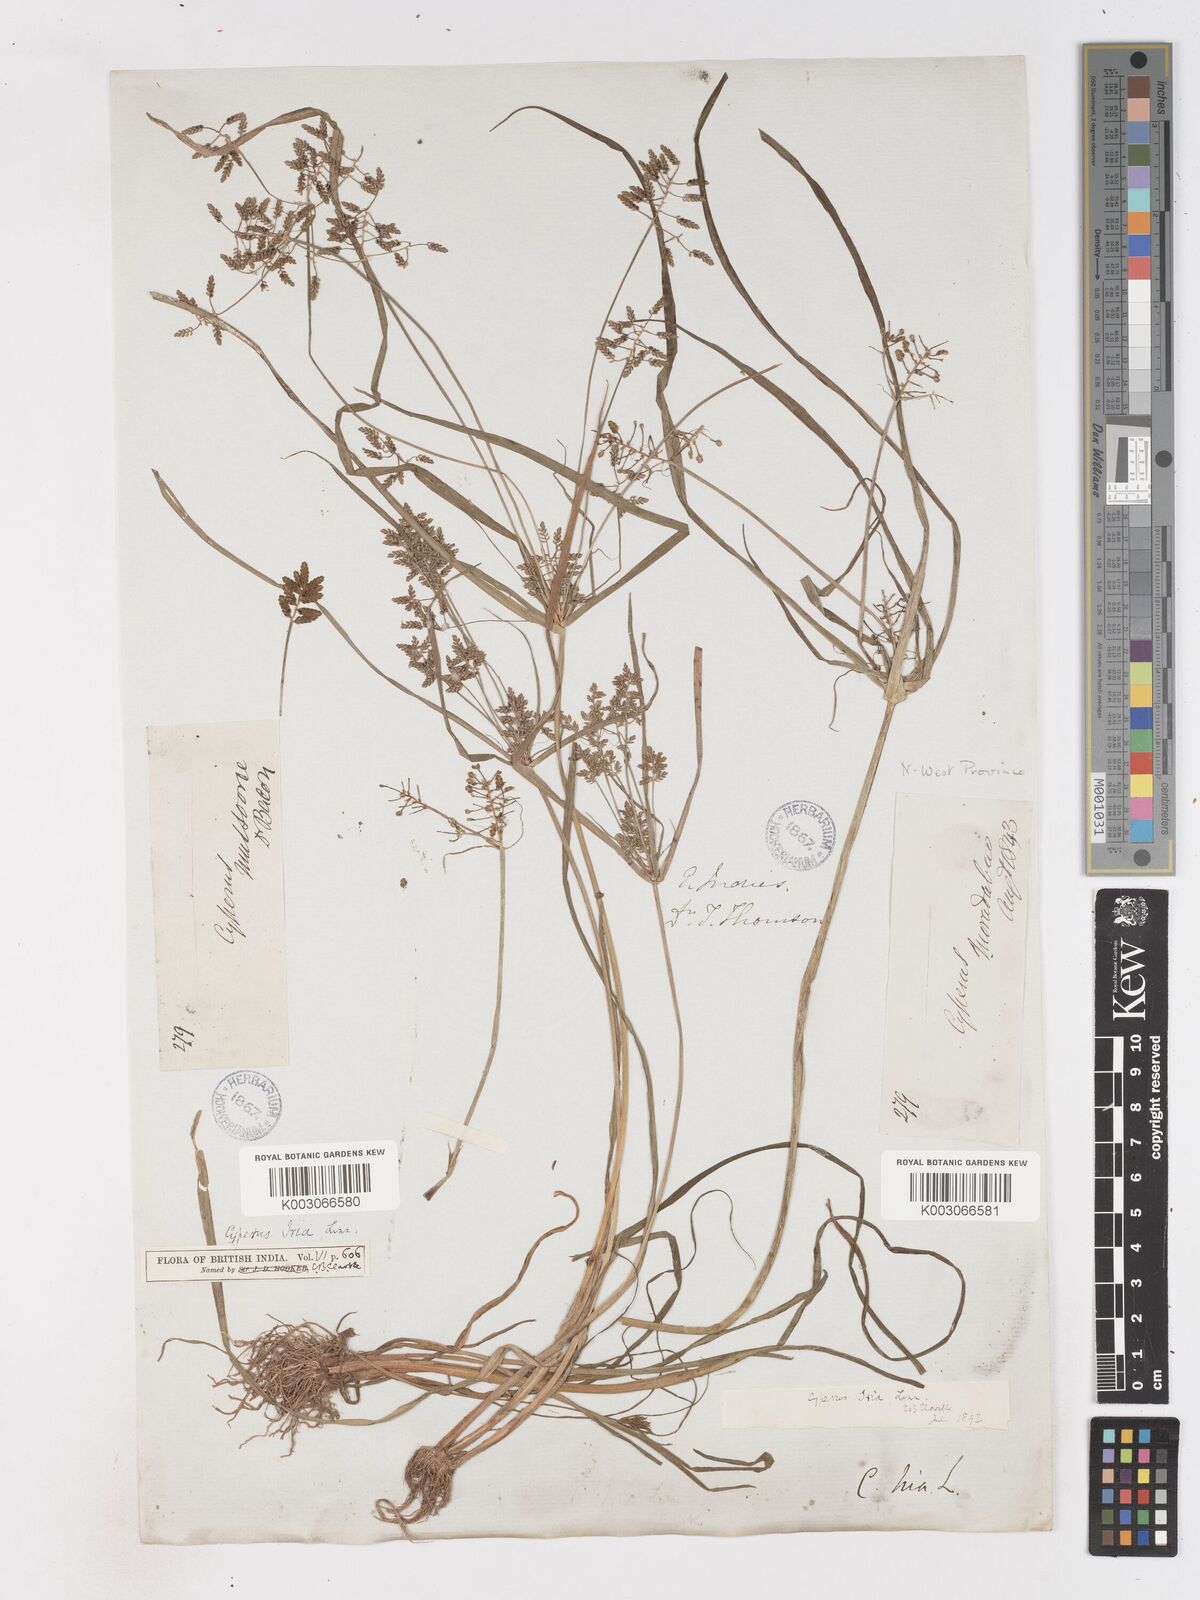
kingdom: Plantae
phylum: Tracheophyta
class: Liliopsida
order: Poales
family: Cyperaceae
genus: Cyperus
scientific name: Cyperus alulatus
